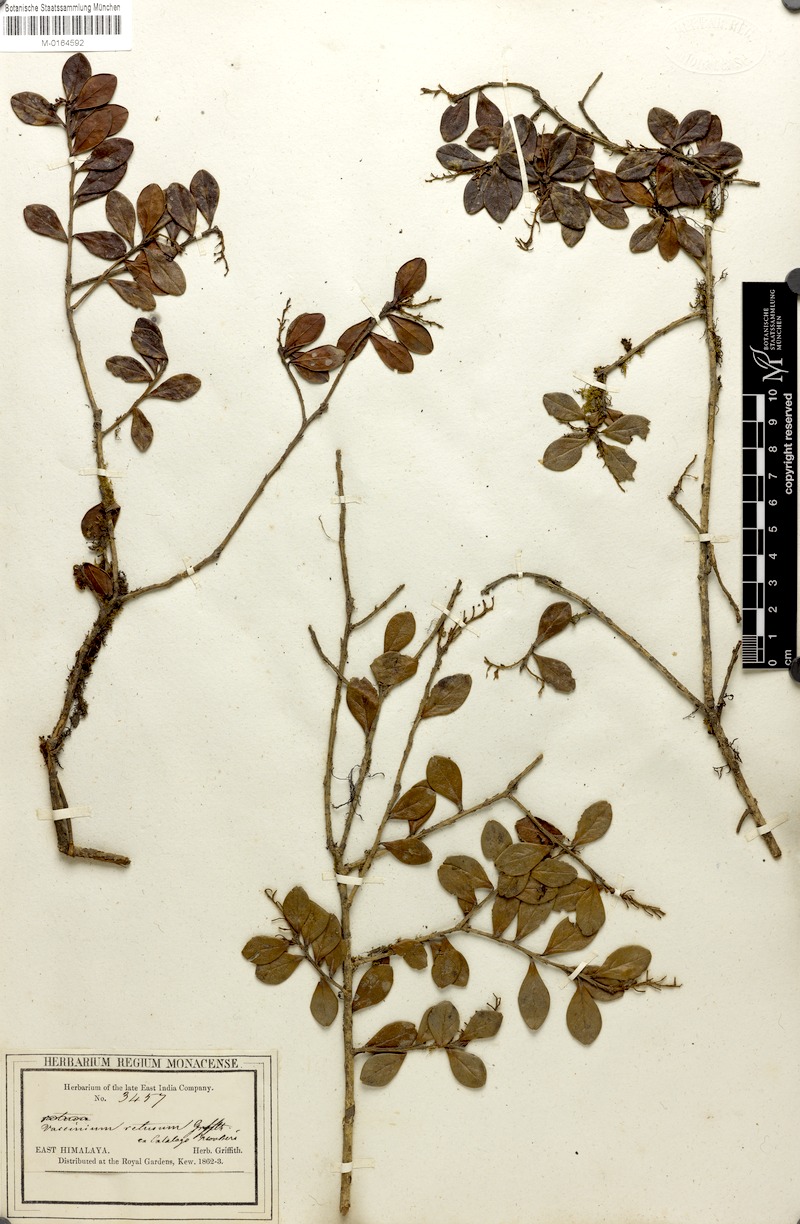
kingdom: Plantae
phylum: Tracheophyta
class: Magnoliopsida
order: Ericales
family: Ericaceae
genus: Vaccinium
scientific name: Vaccinium retusum
